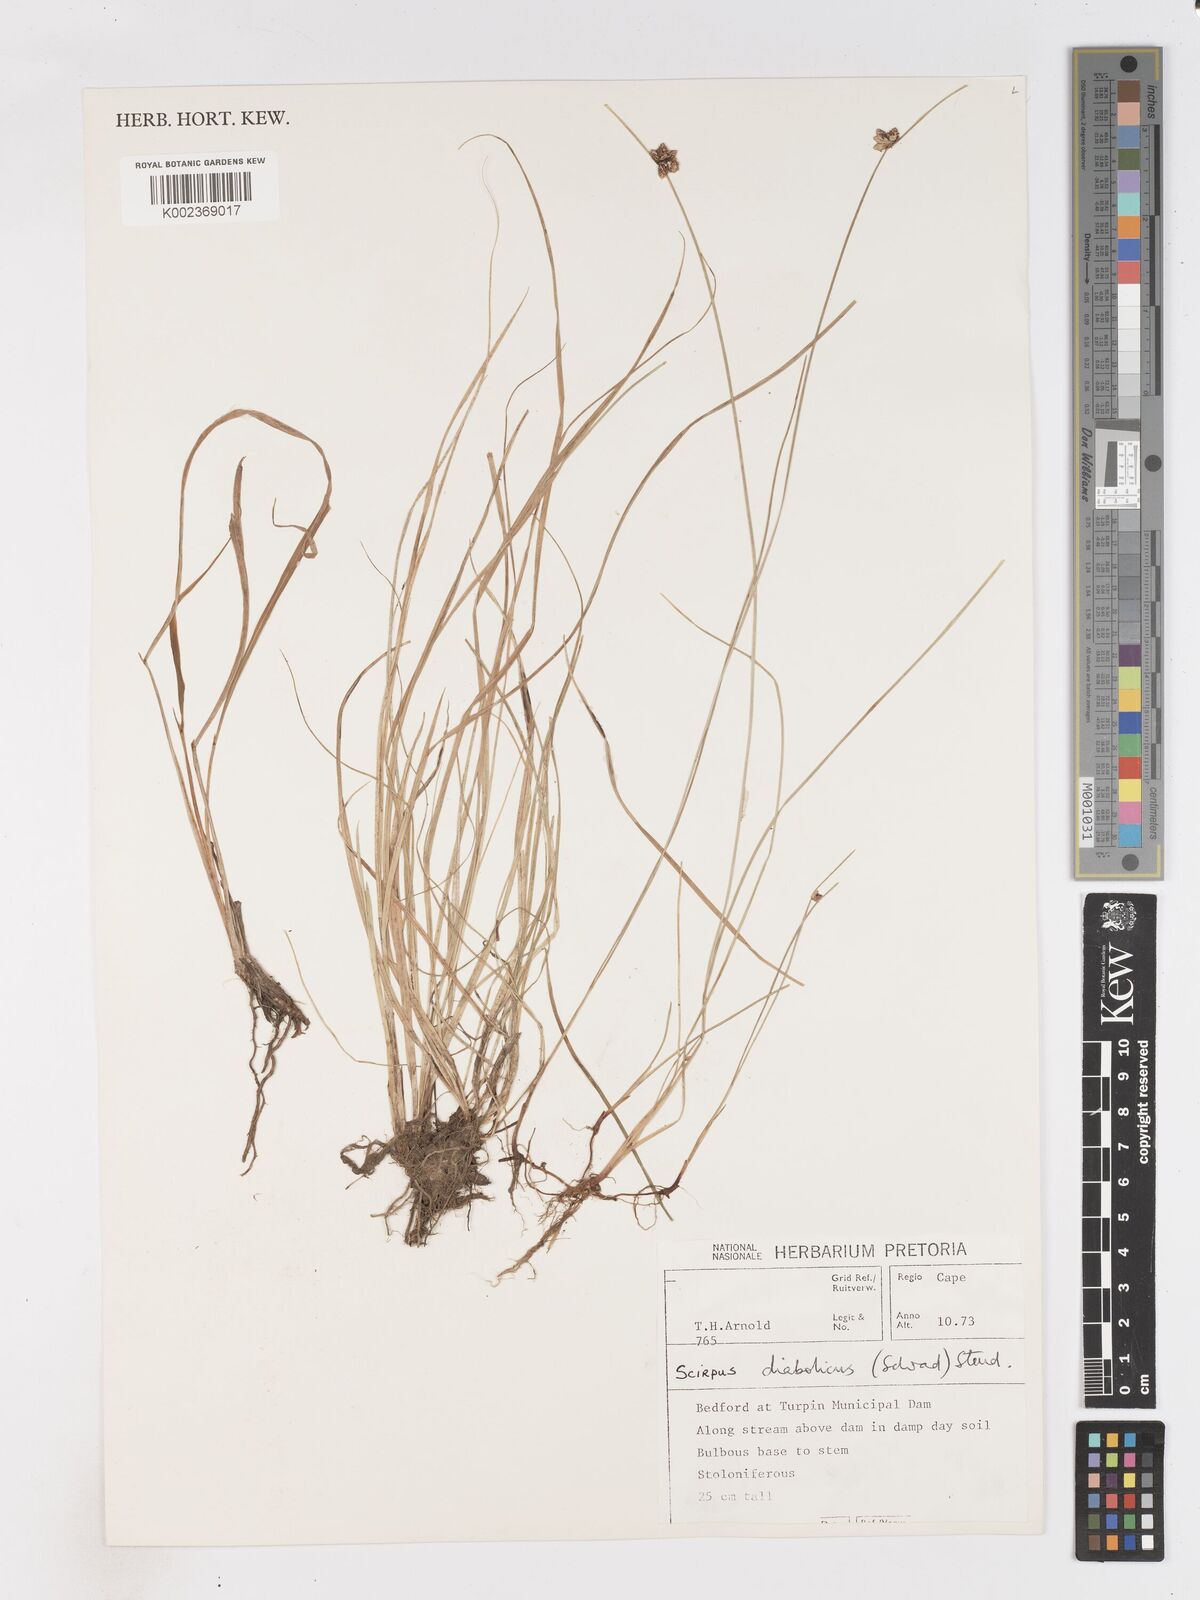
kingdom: Plantae
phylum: Tracheophyta
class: Liliopsida
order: Poales
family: Cyperaceae
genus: Isolepis
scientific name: Isolepis diabolica
